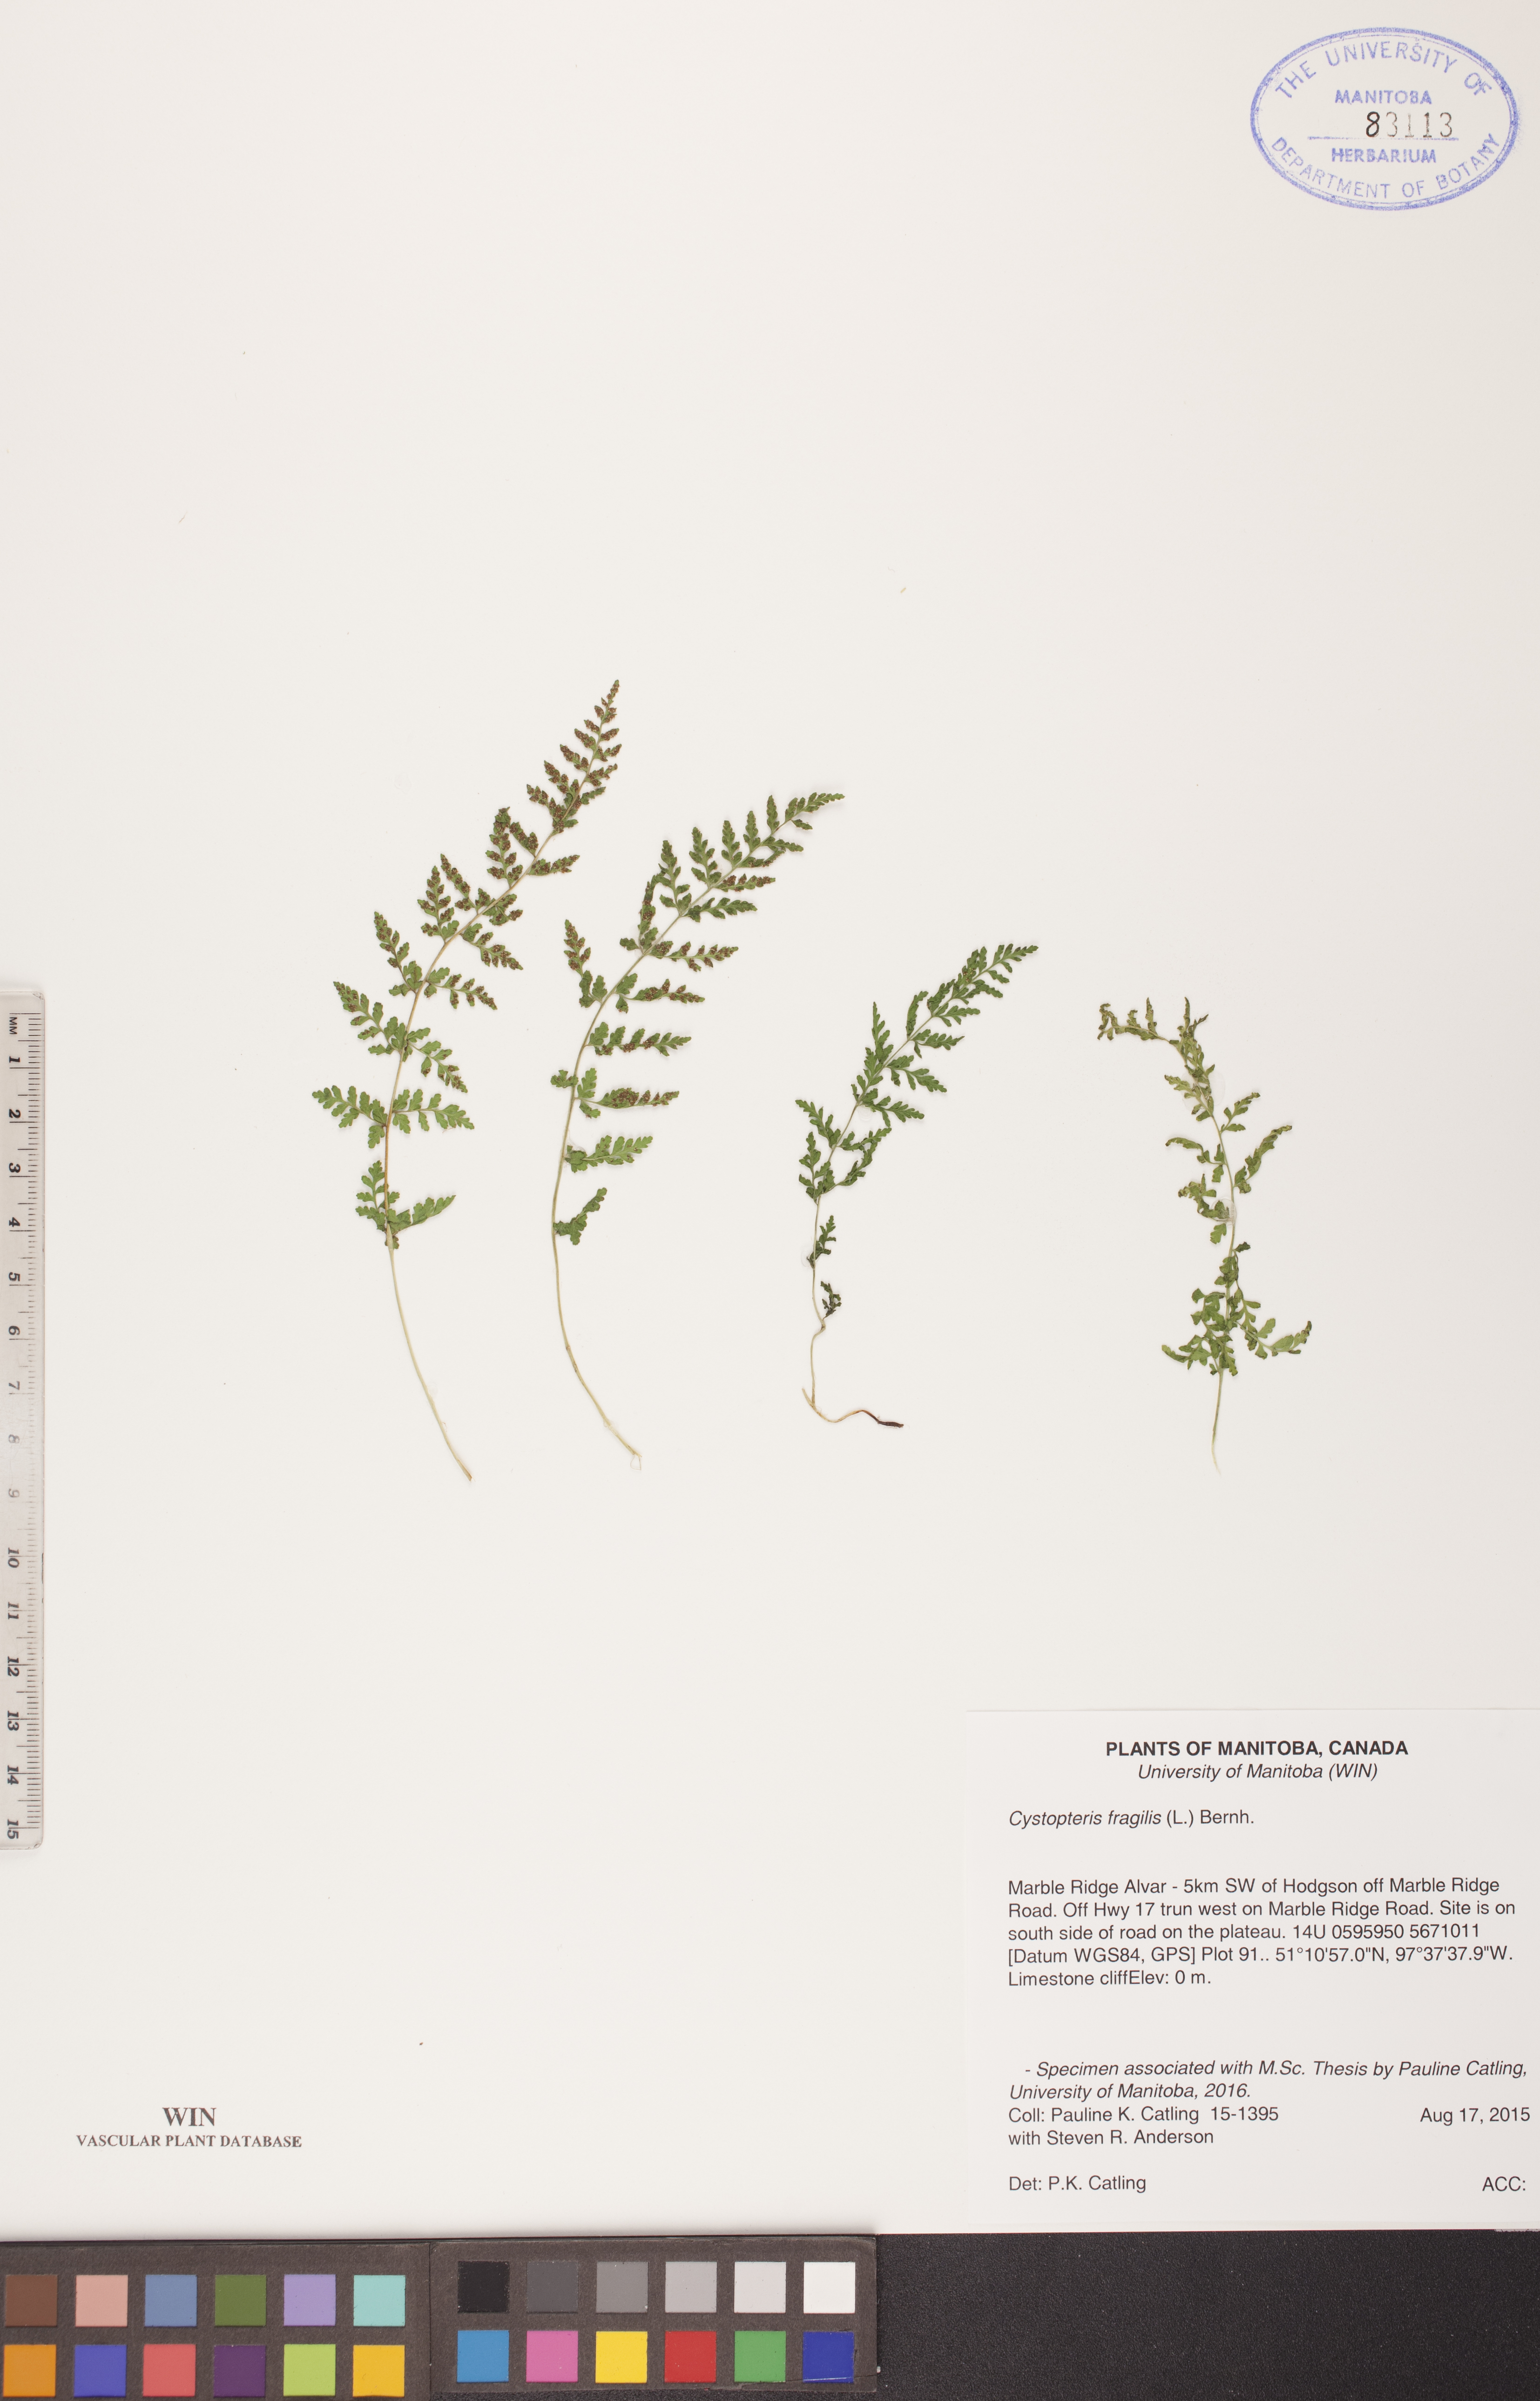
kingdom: Plantae
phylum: Tracheophyta
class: Polypodiopsida
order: Polypodiales
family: Cystopteridaceae
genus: Cystopteris
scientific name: Cystopteris fragilis
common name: Brittle bladder fern
